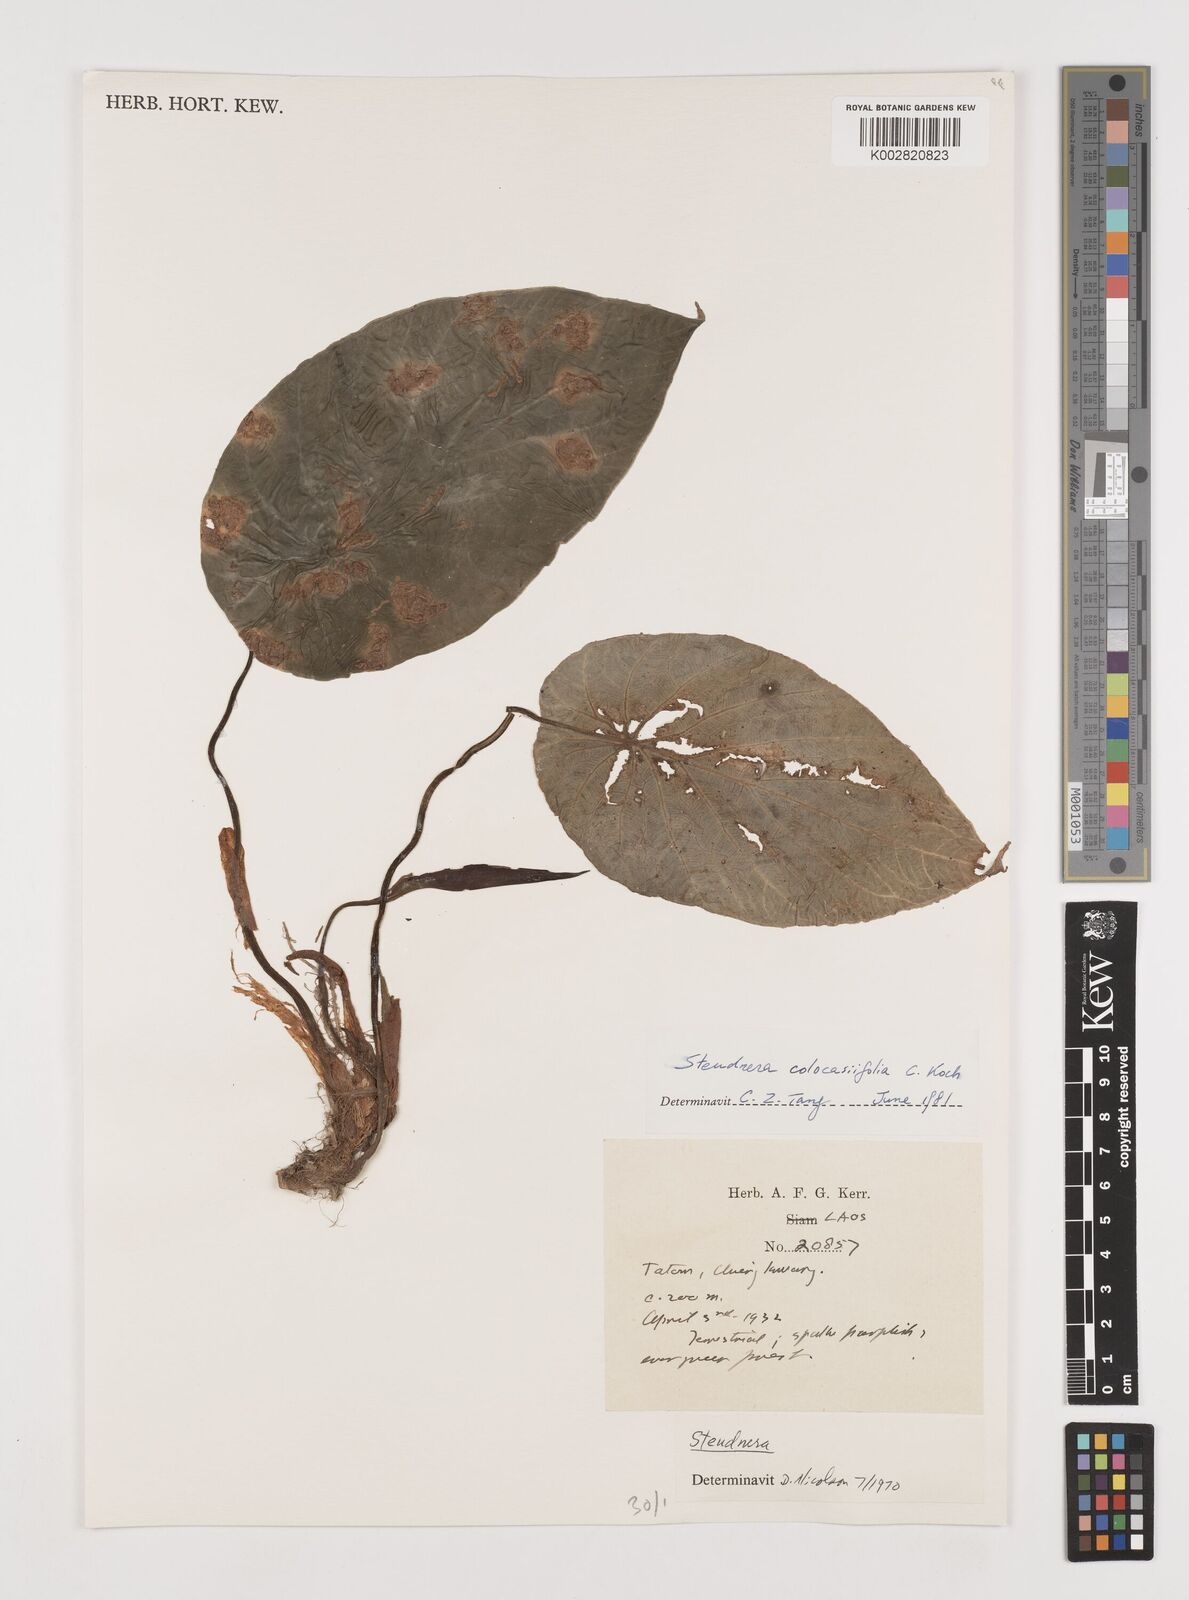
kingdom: Plantae
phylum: Tracheophyta
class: Liliopsida
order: Alismatales
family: Araceae
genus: Steudnera
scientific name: Steudnera henryana
